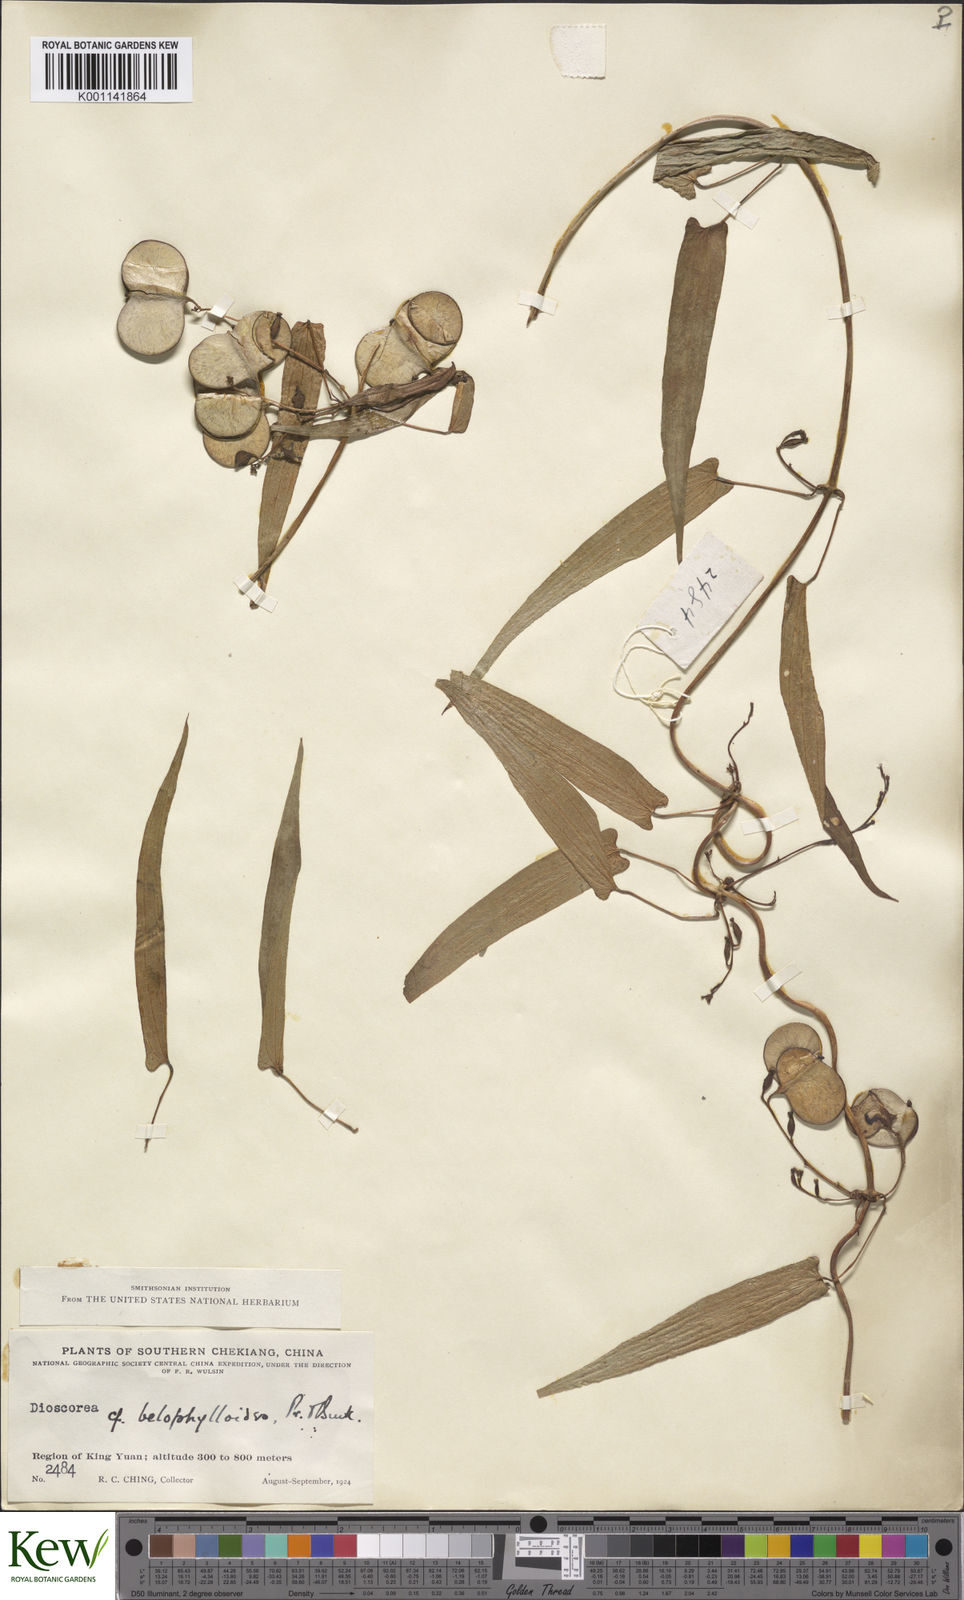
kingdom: Plantae
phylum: Tracheophyta
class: Liliopsida
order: Dioscoreales
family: Dioscoreaceae
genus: Dioscorea
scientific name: Dioscorea japonica
